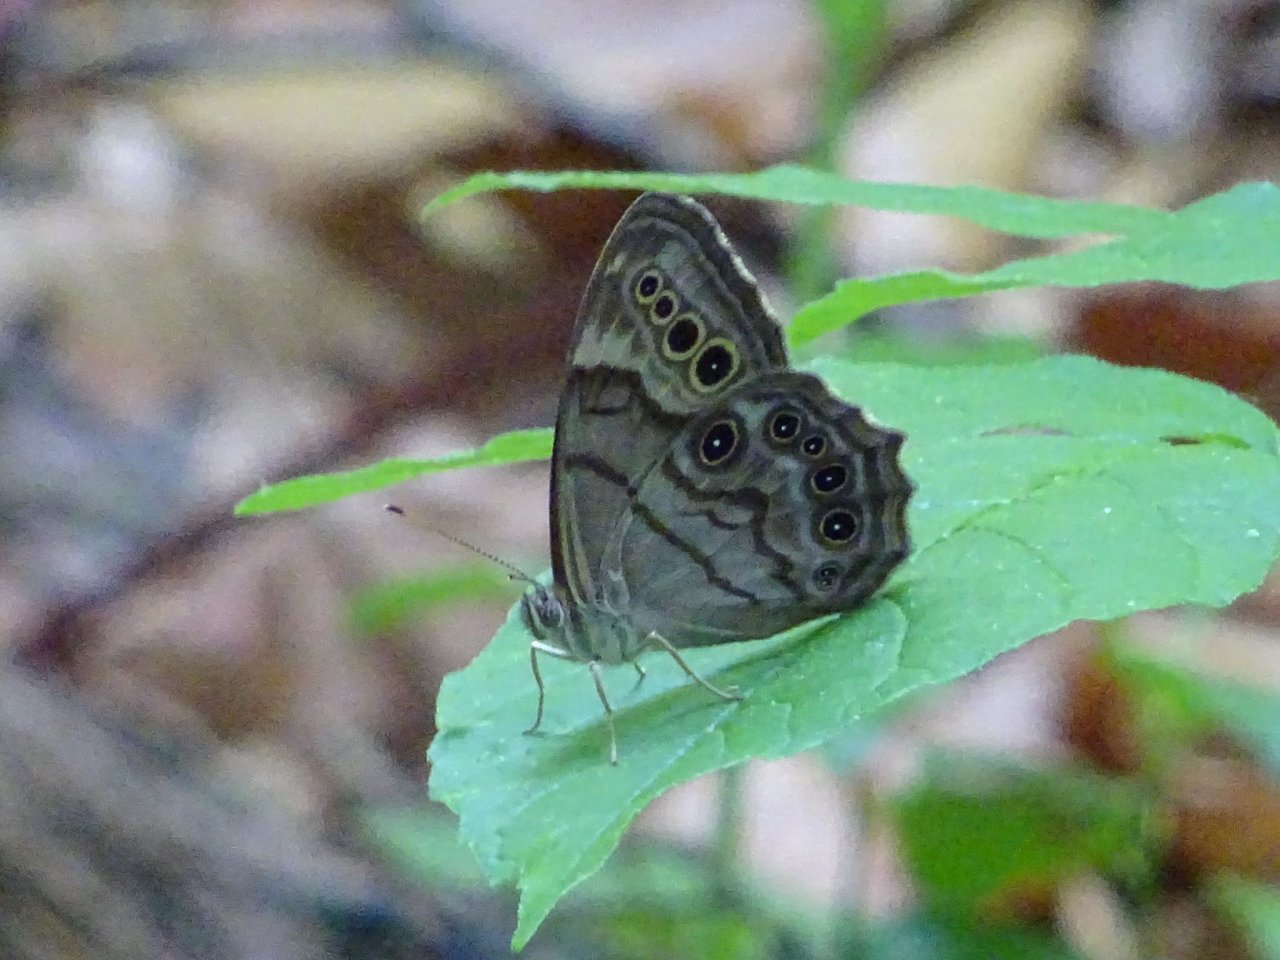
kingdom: Animalia
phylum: Arthropoda
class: Insecta
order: Lepidoptera
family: Nymphalidae
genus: Lethe
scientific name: Lethe anthedon
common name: Northern Pearly-Eye
